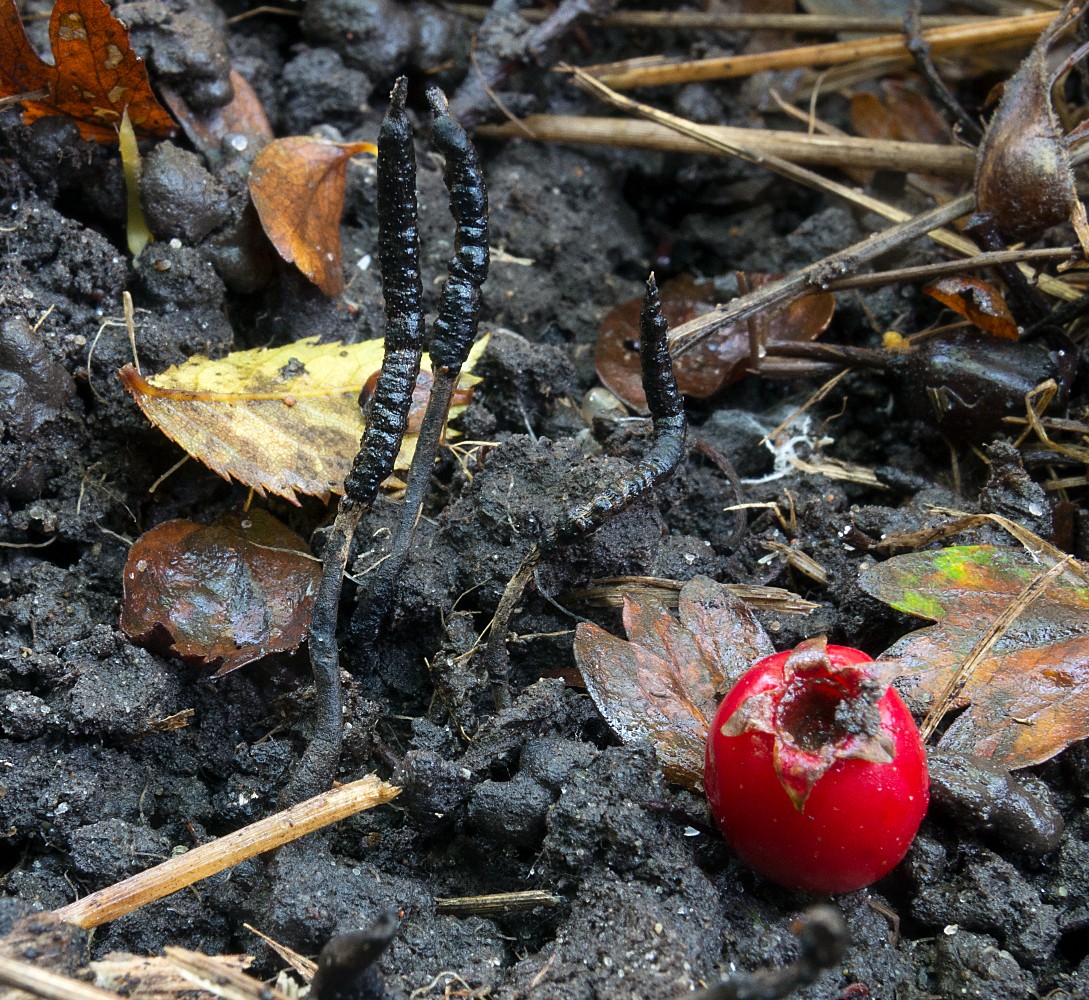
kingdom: Fungi
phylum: Ascomycota
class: Sordariomycetes
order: Xylariales
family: Xylariaceae
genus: Xylaria
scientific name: Xylaria oxyacanthae
